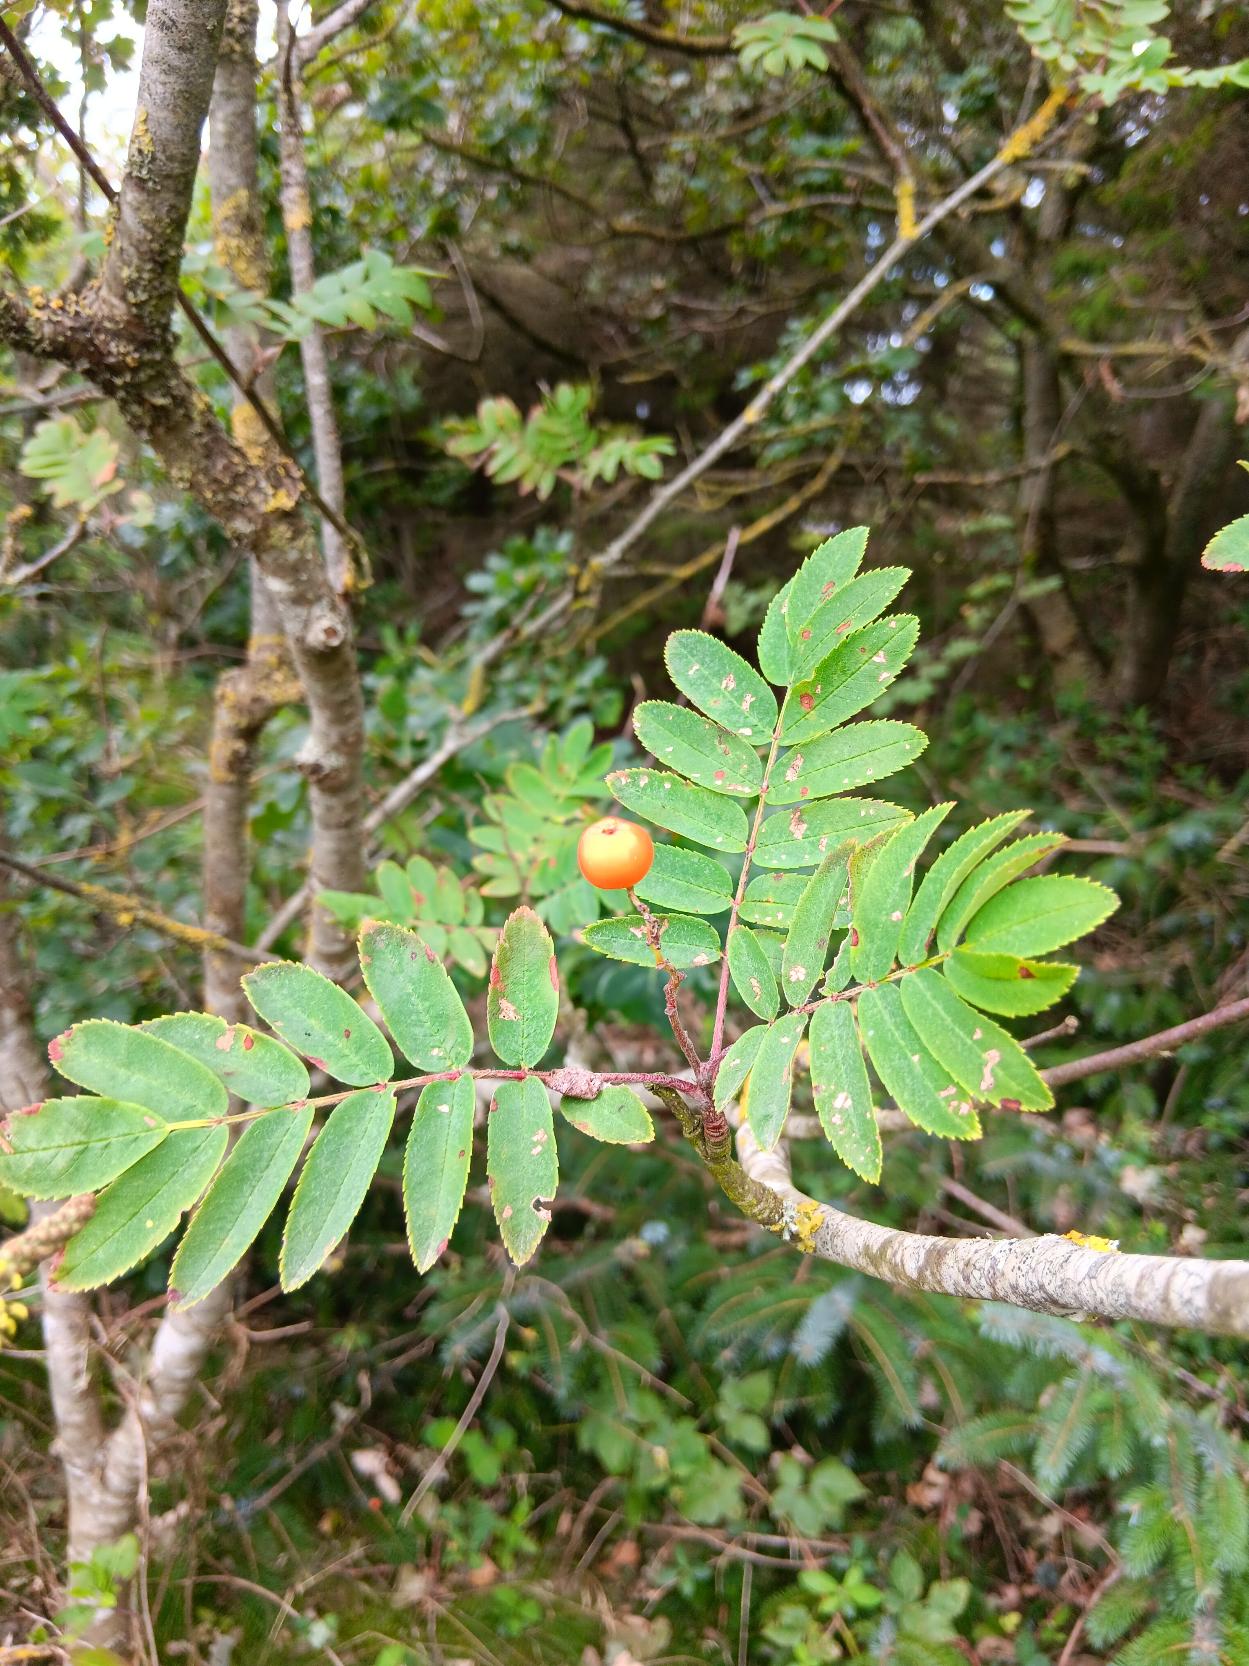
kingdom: Plantae
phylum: Tracheophyta
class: Magnoliopsida
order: Rosales
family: Rosaceae
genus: Sorbus
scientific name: Sorbus aucuparia
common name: Almindelig røn
